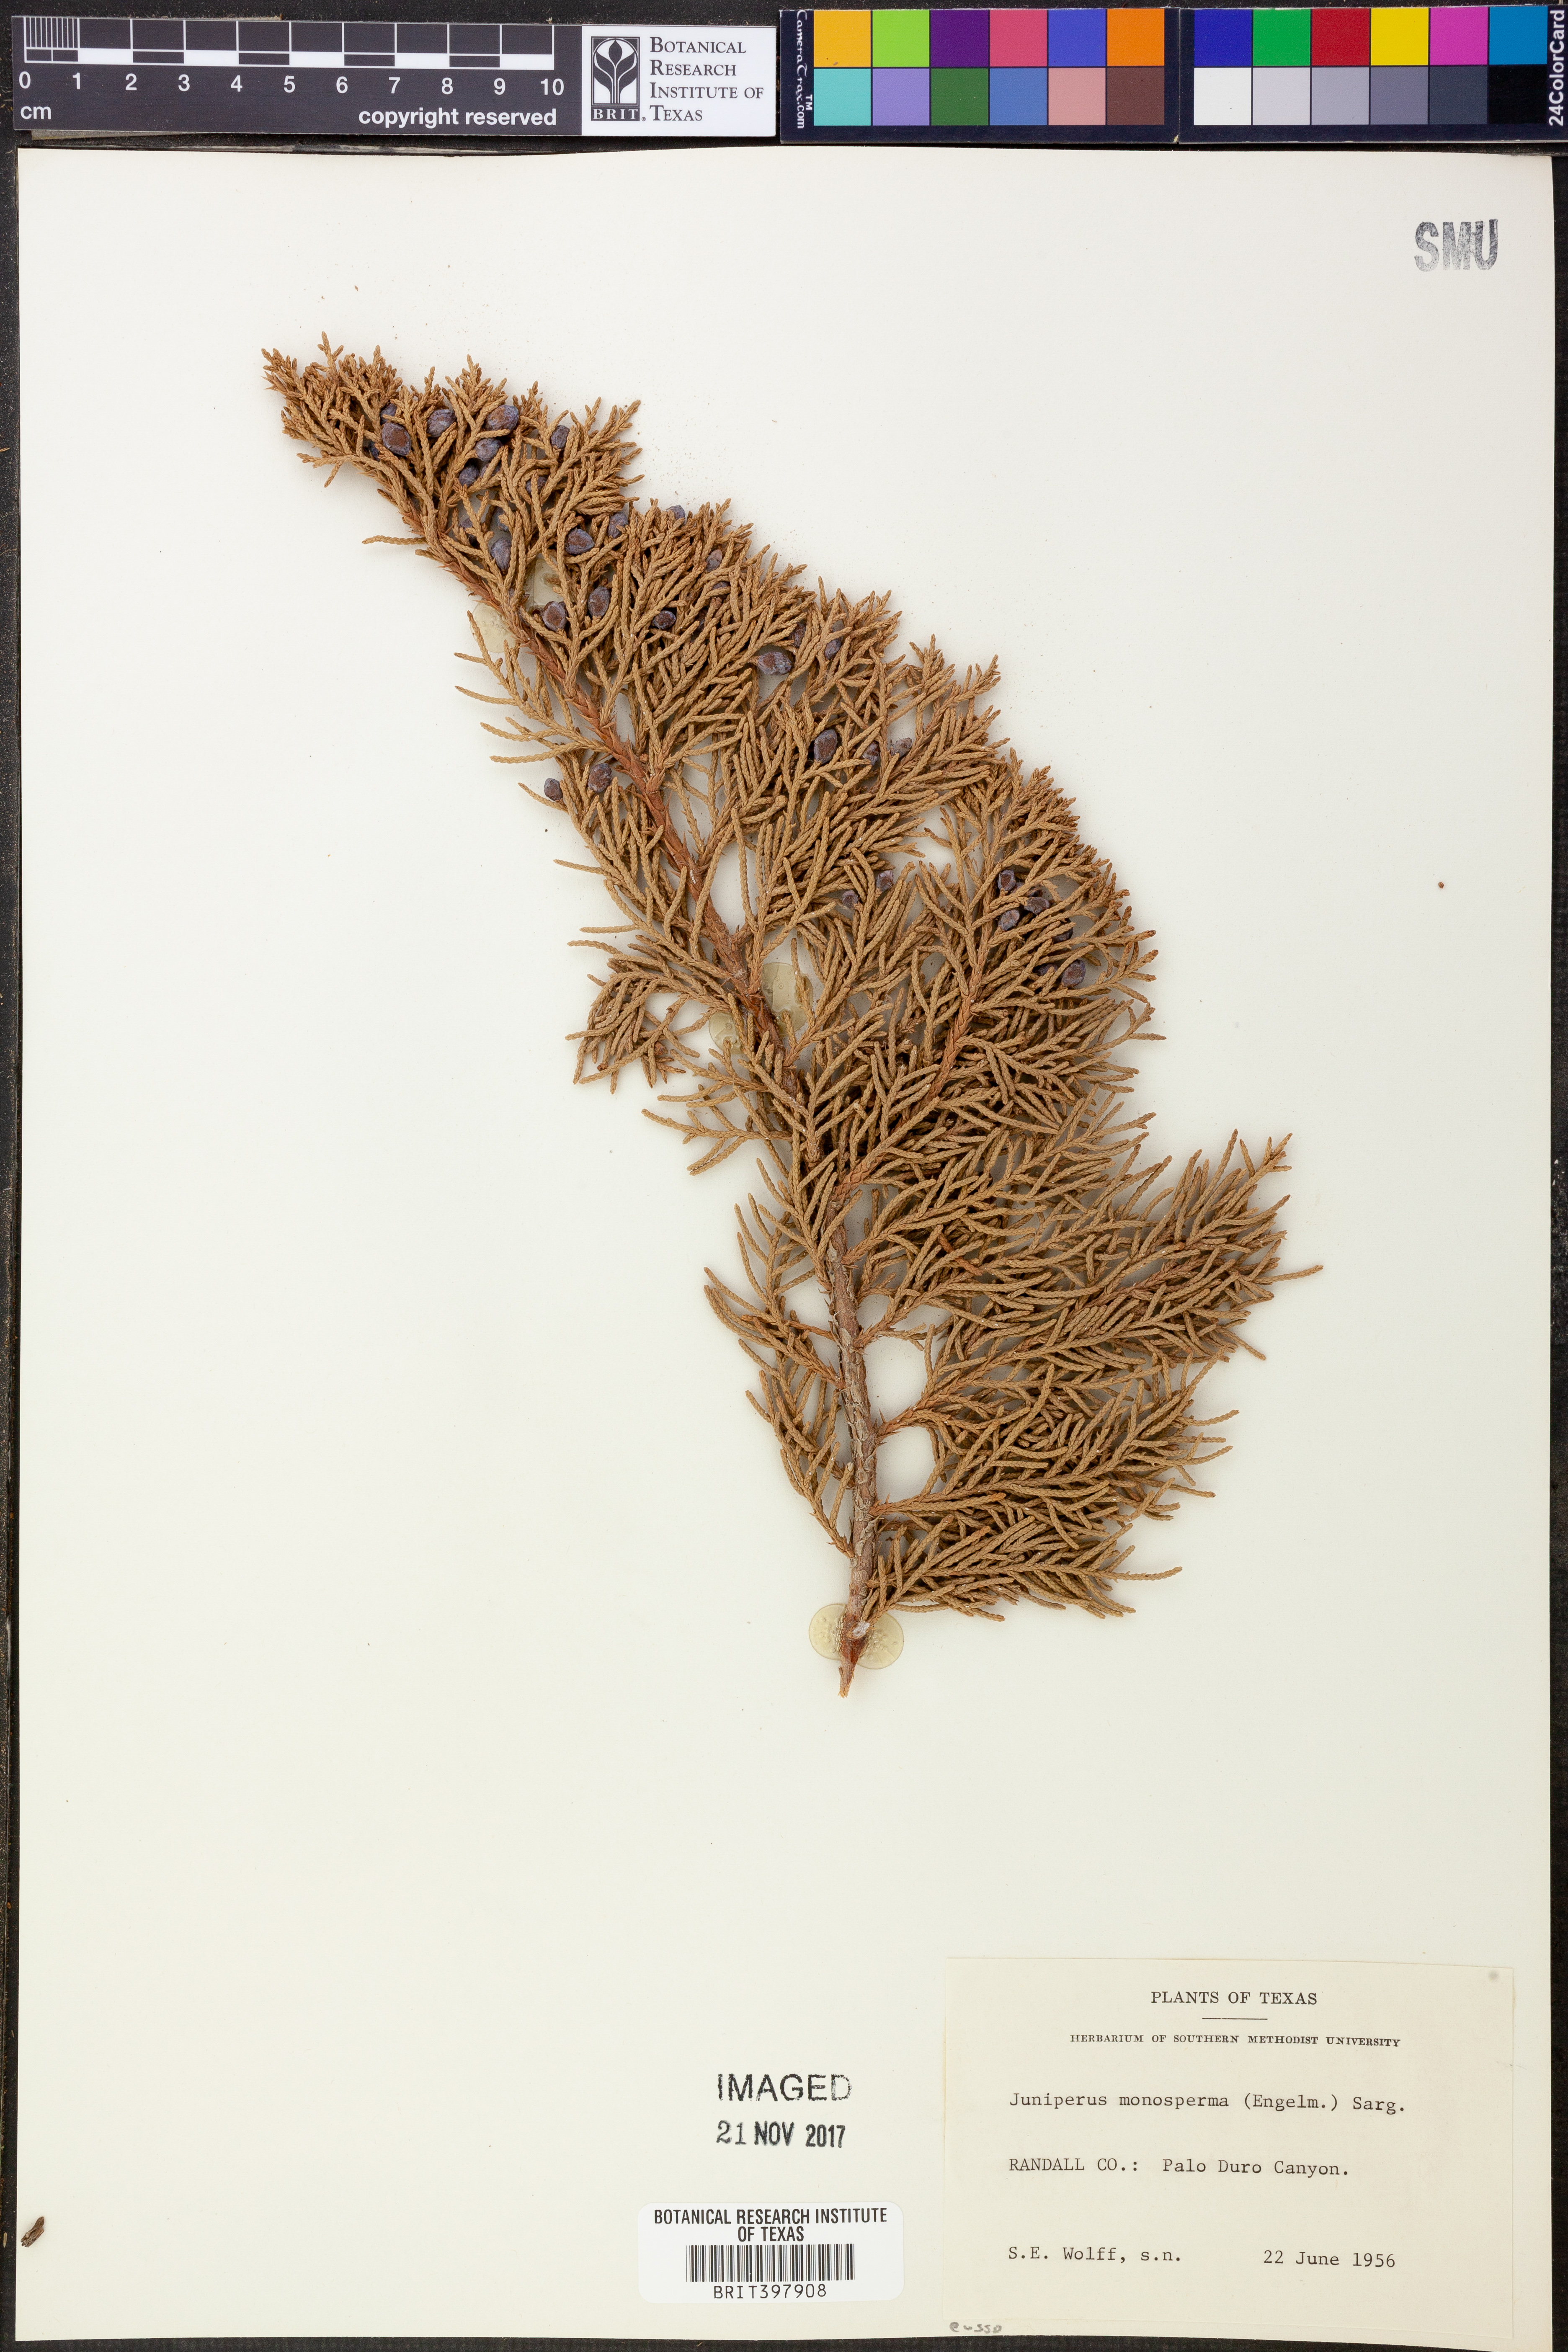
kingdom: Plantae
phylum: Tracheophyta
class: Pinopsida
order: Pinales
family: Cupressaceae
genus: Juniperus
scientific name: Juniperus monosperma
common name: One-seed juniper
